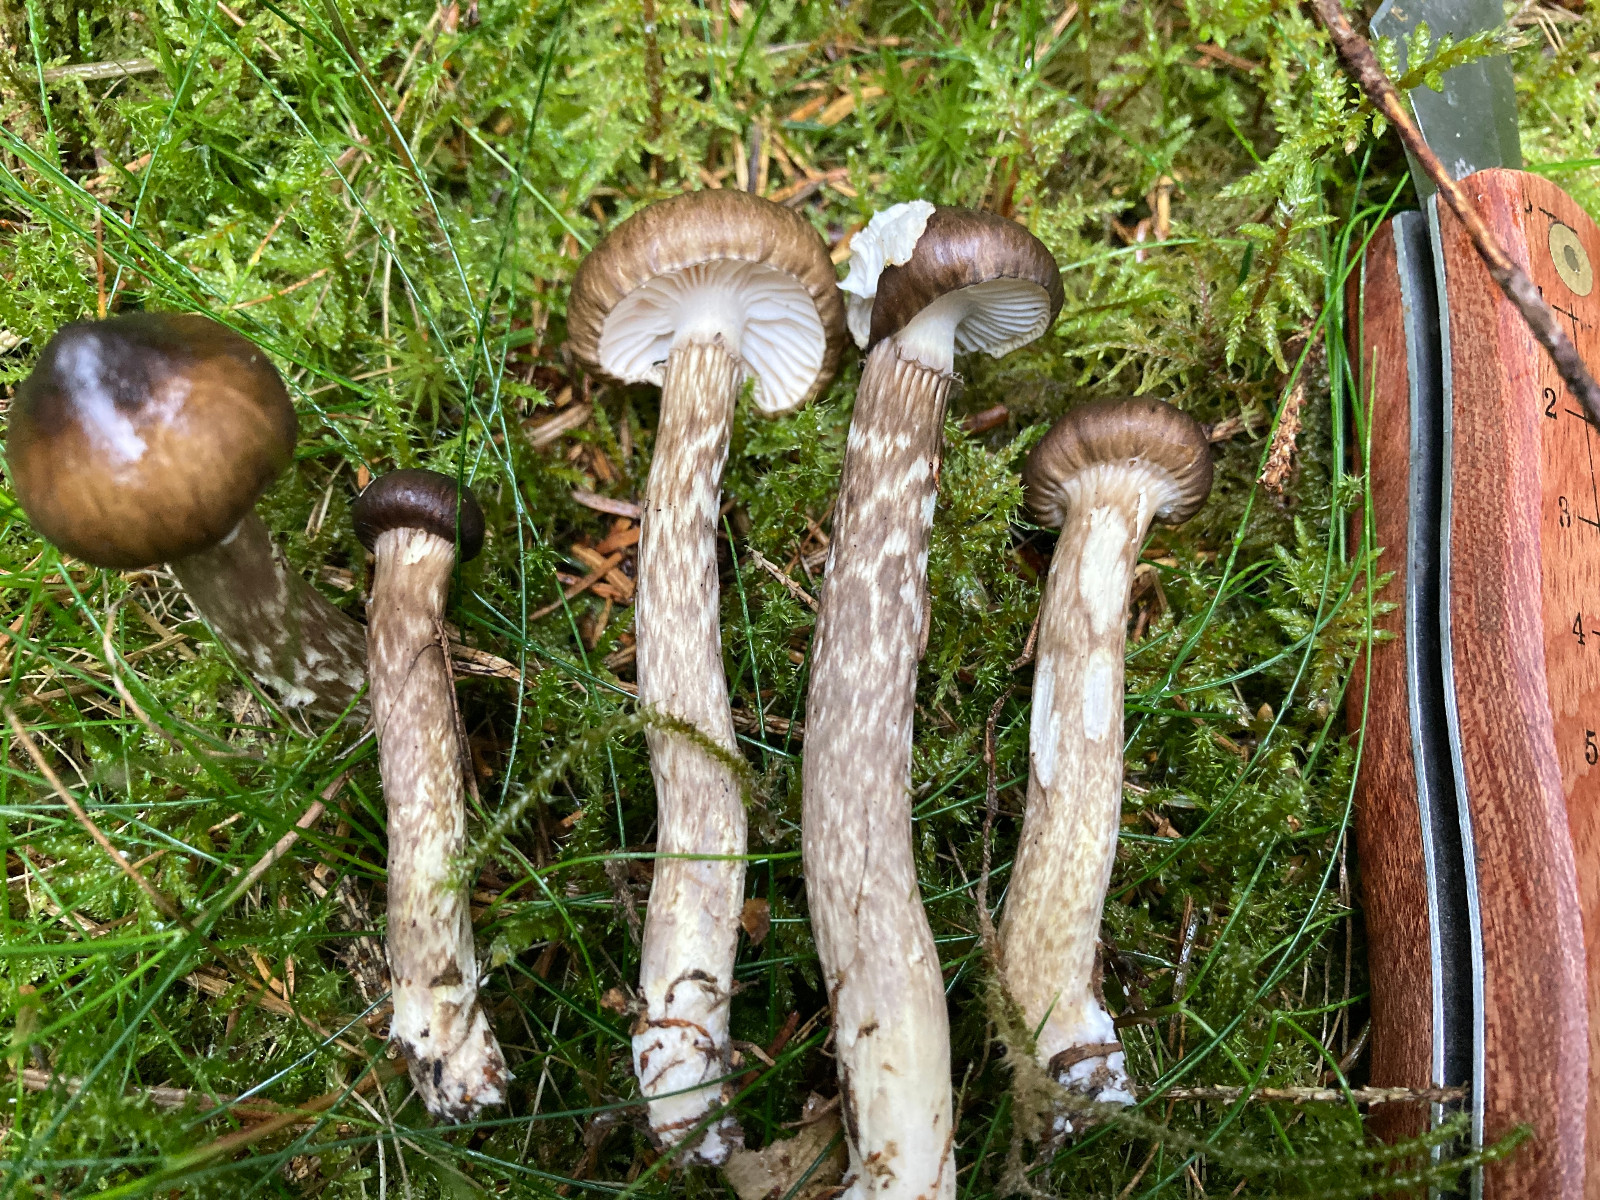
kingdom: Fungi
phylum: Basidiomycota
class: Agaricomycetes
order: Agaricales
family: Hygrophoraceae
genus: Hygrophorus
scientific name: Hygrophorus olivaceoalbus
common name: hvidbrun sneglehat
